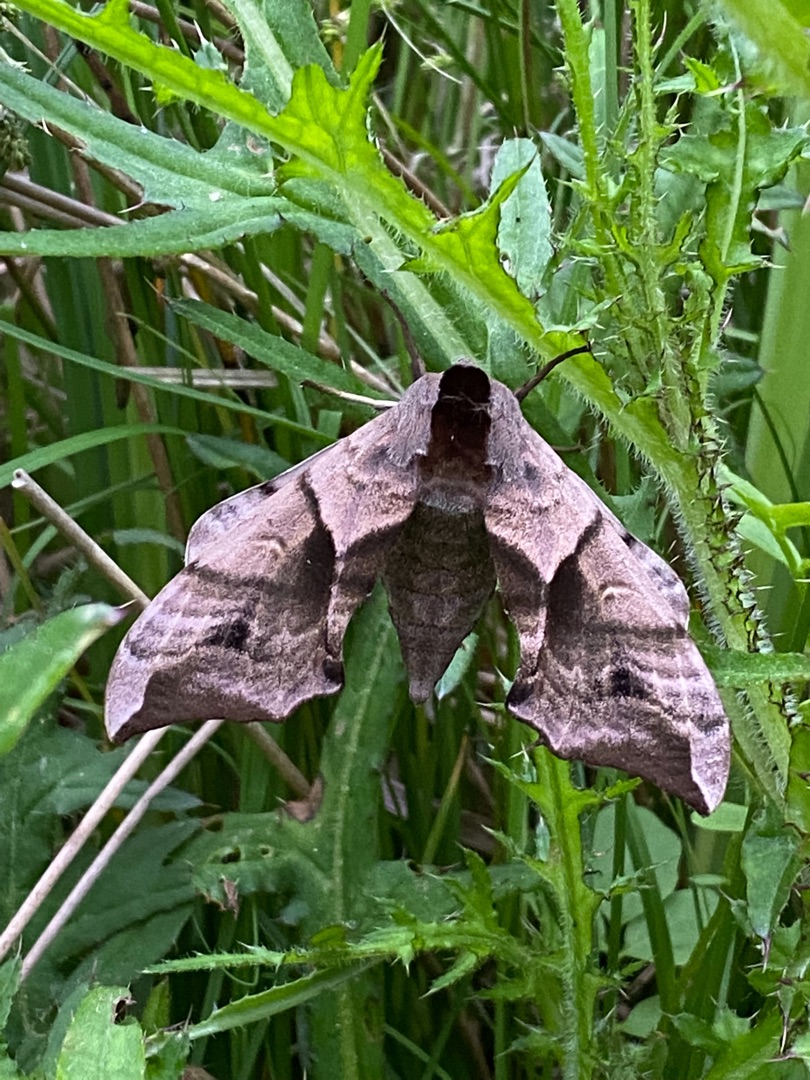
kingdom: Animalia
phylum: Arthropoda
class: Insecta
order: Lepidoptera
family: Sphingidae
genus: Smerinthus
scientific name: Smerinthus ocellata
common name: Aftenpåfugleøje
